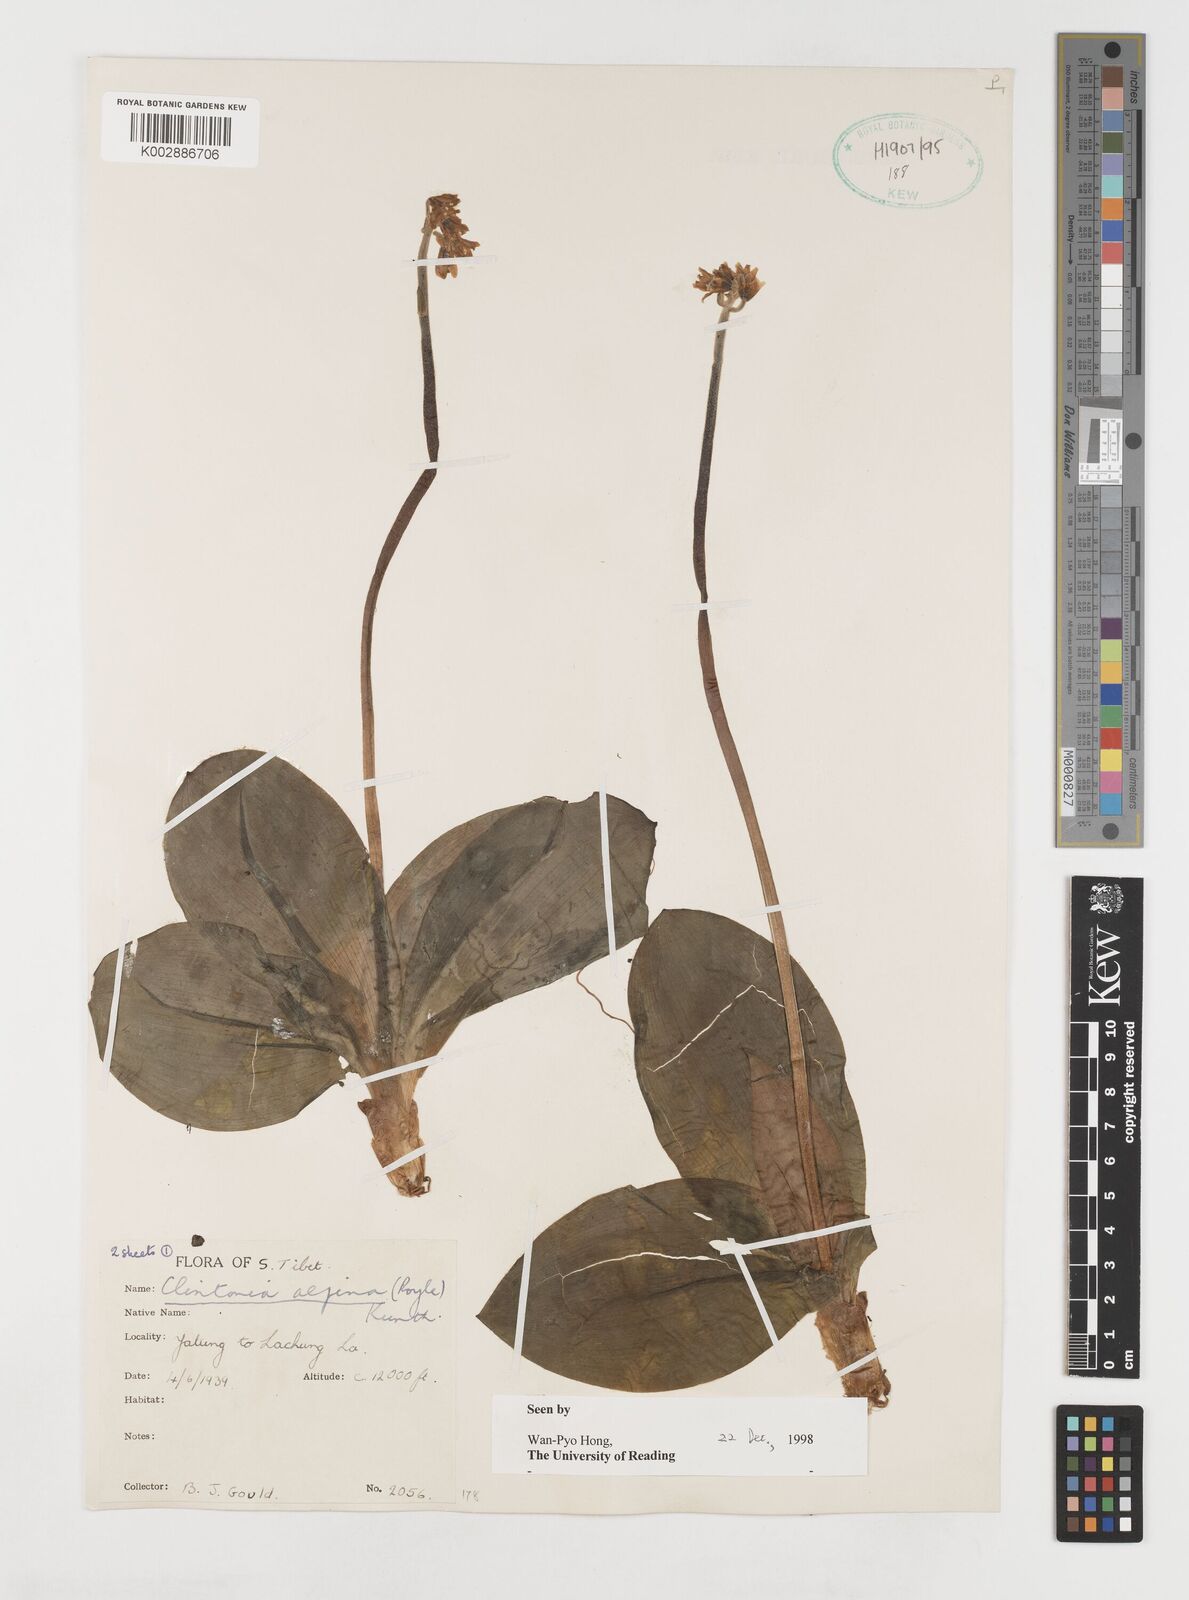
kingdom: Plantae
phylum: Tracheophyta
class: Liliopsida
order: Liliales
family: Liliaceae
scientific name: Liliaceae
